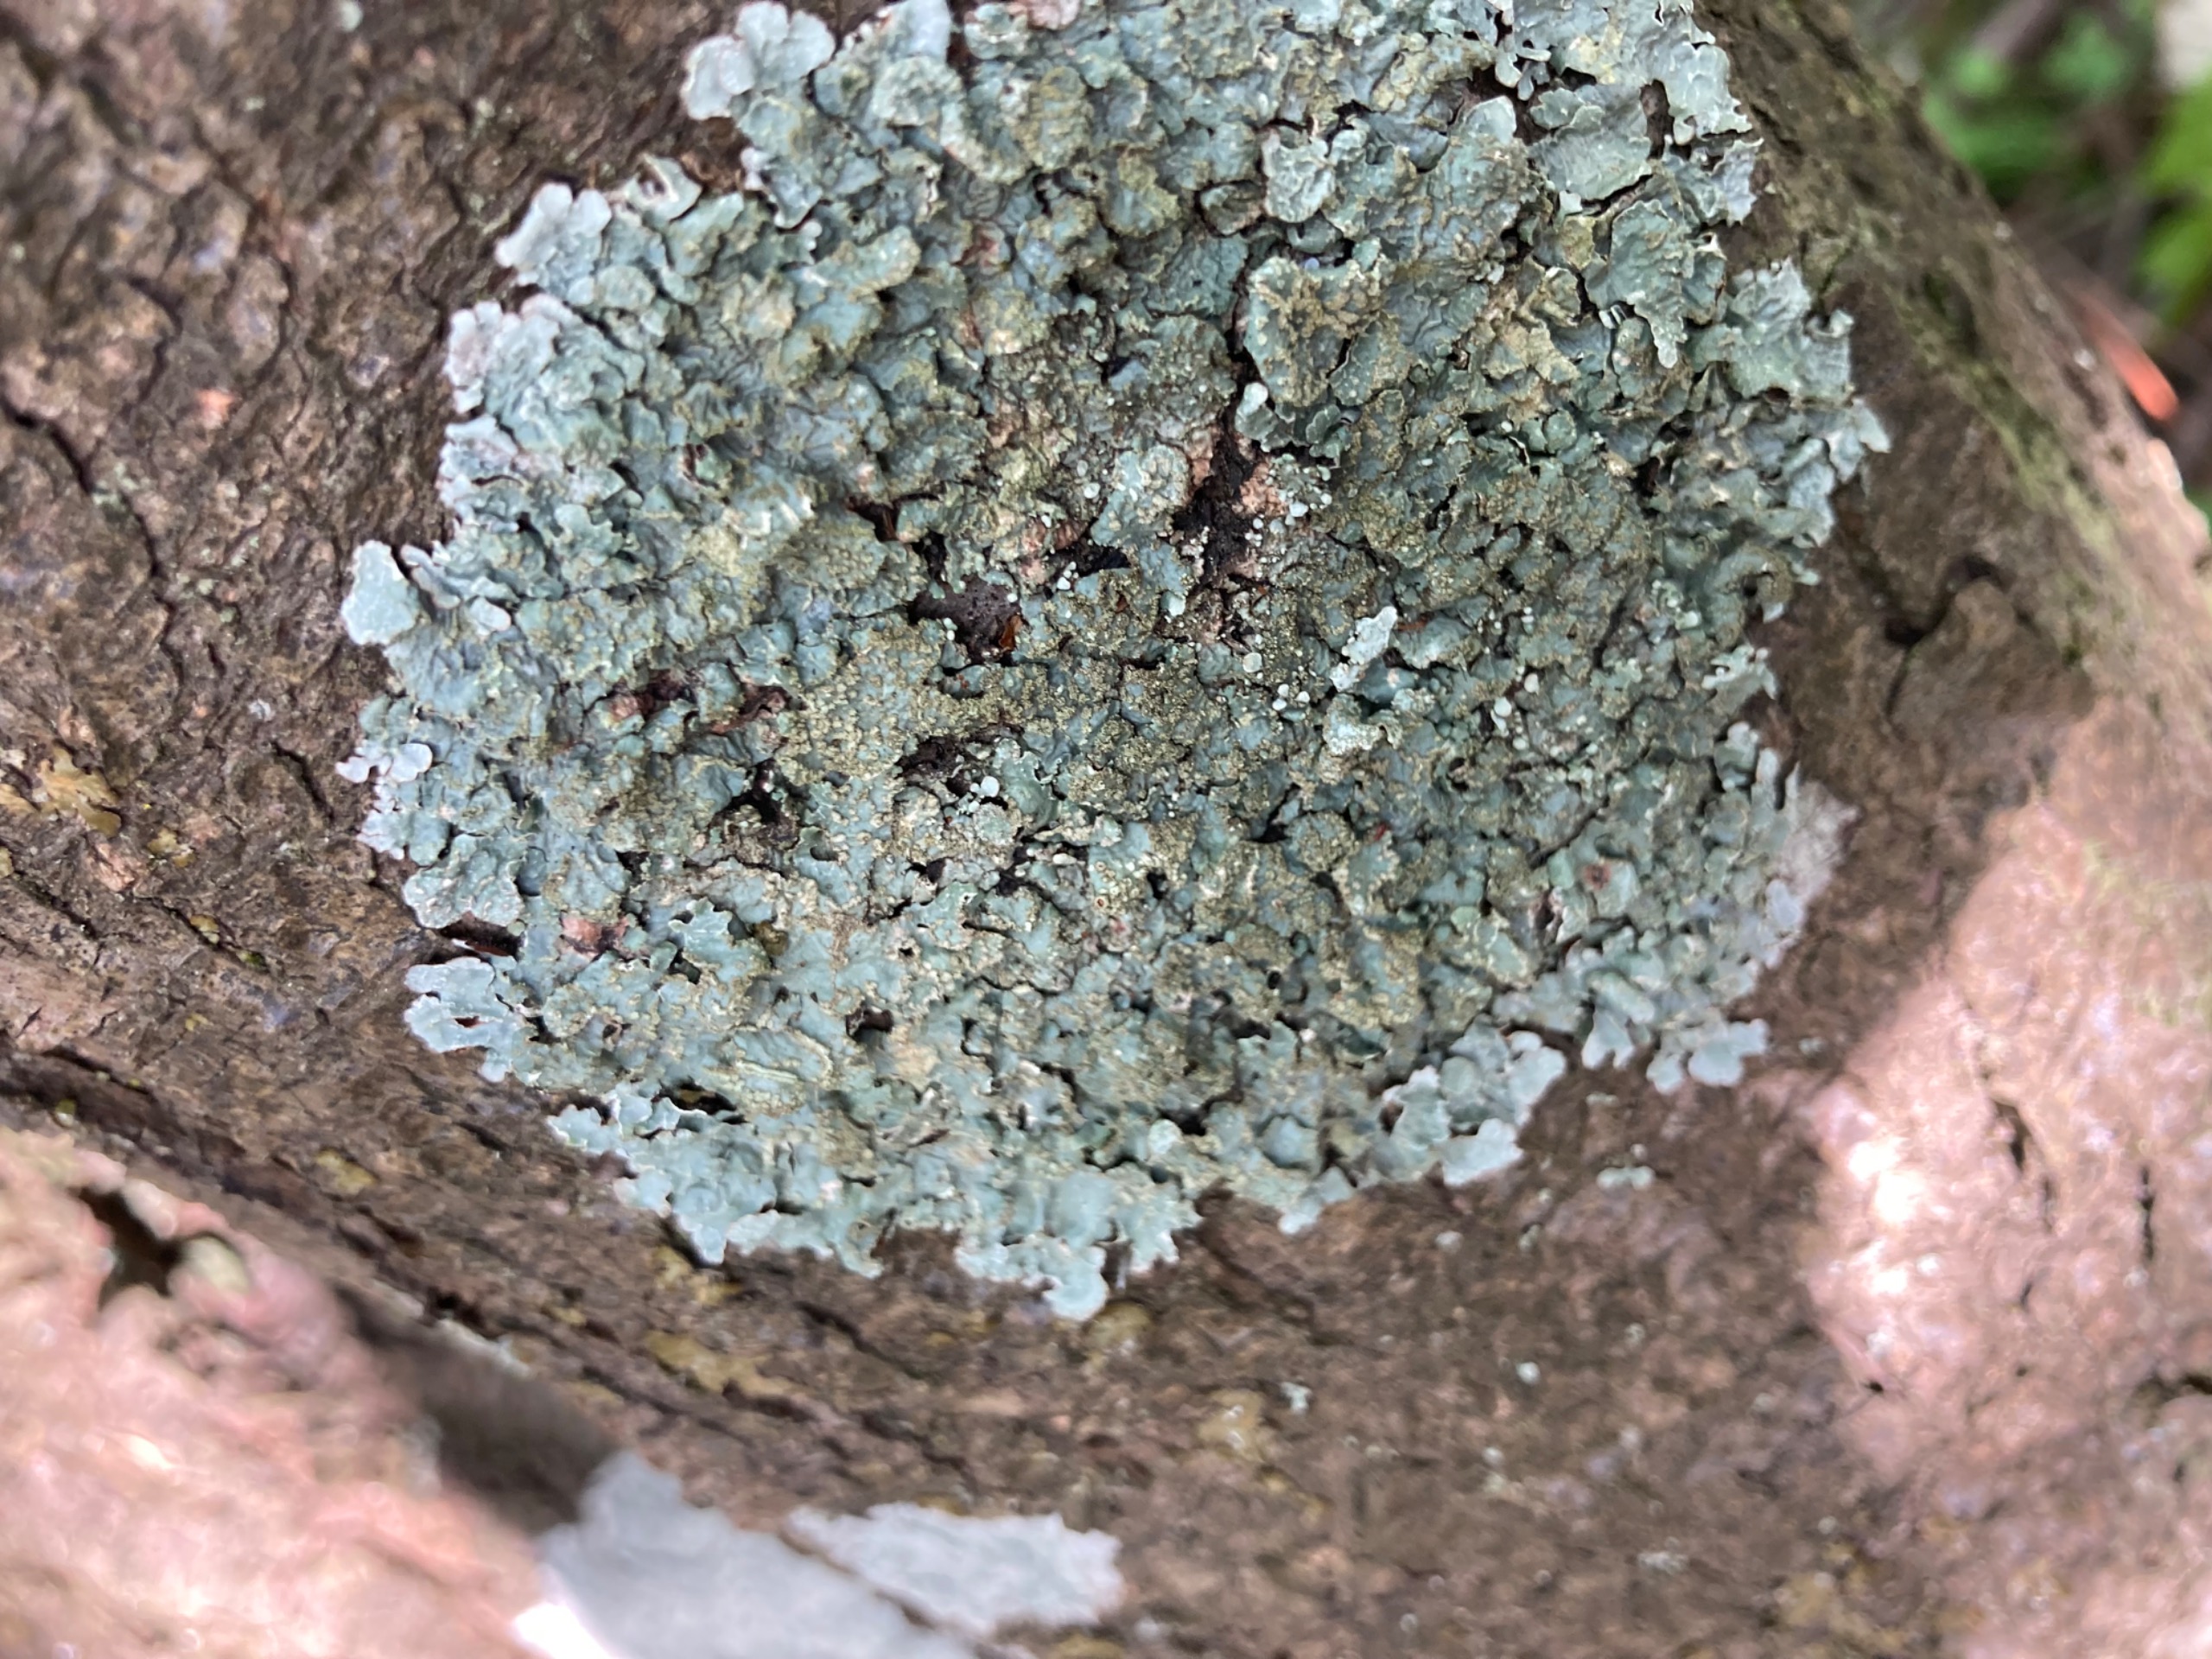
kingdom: Fungi
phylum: Ascomycota
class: Lecanoromycetes
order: Lecanorales
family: Parmeliaceae
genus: Parmelia
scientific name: Parmelia sulcata
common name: Rynket skållav
